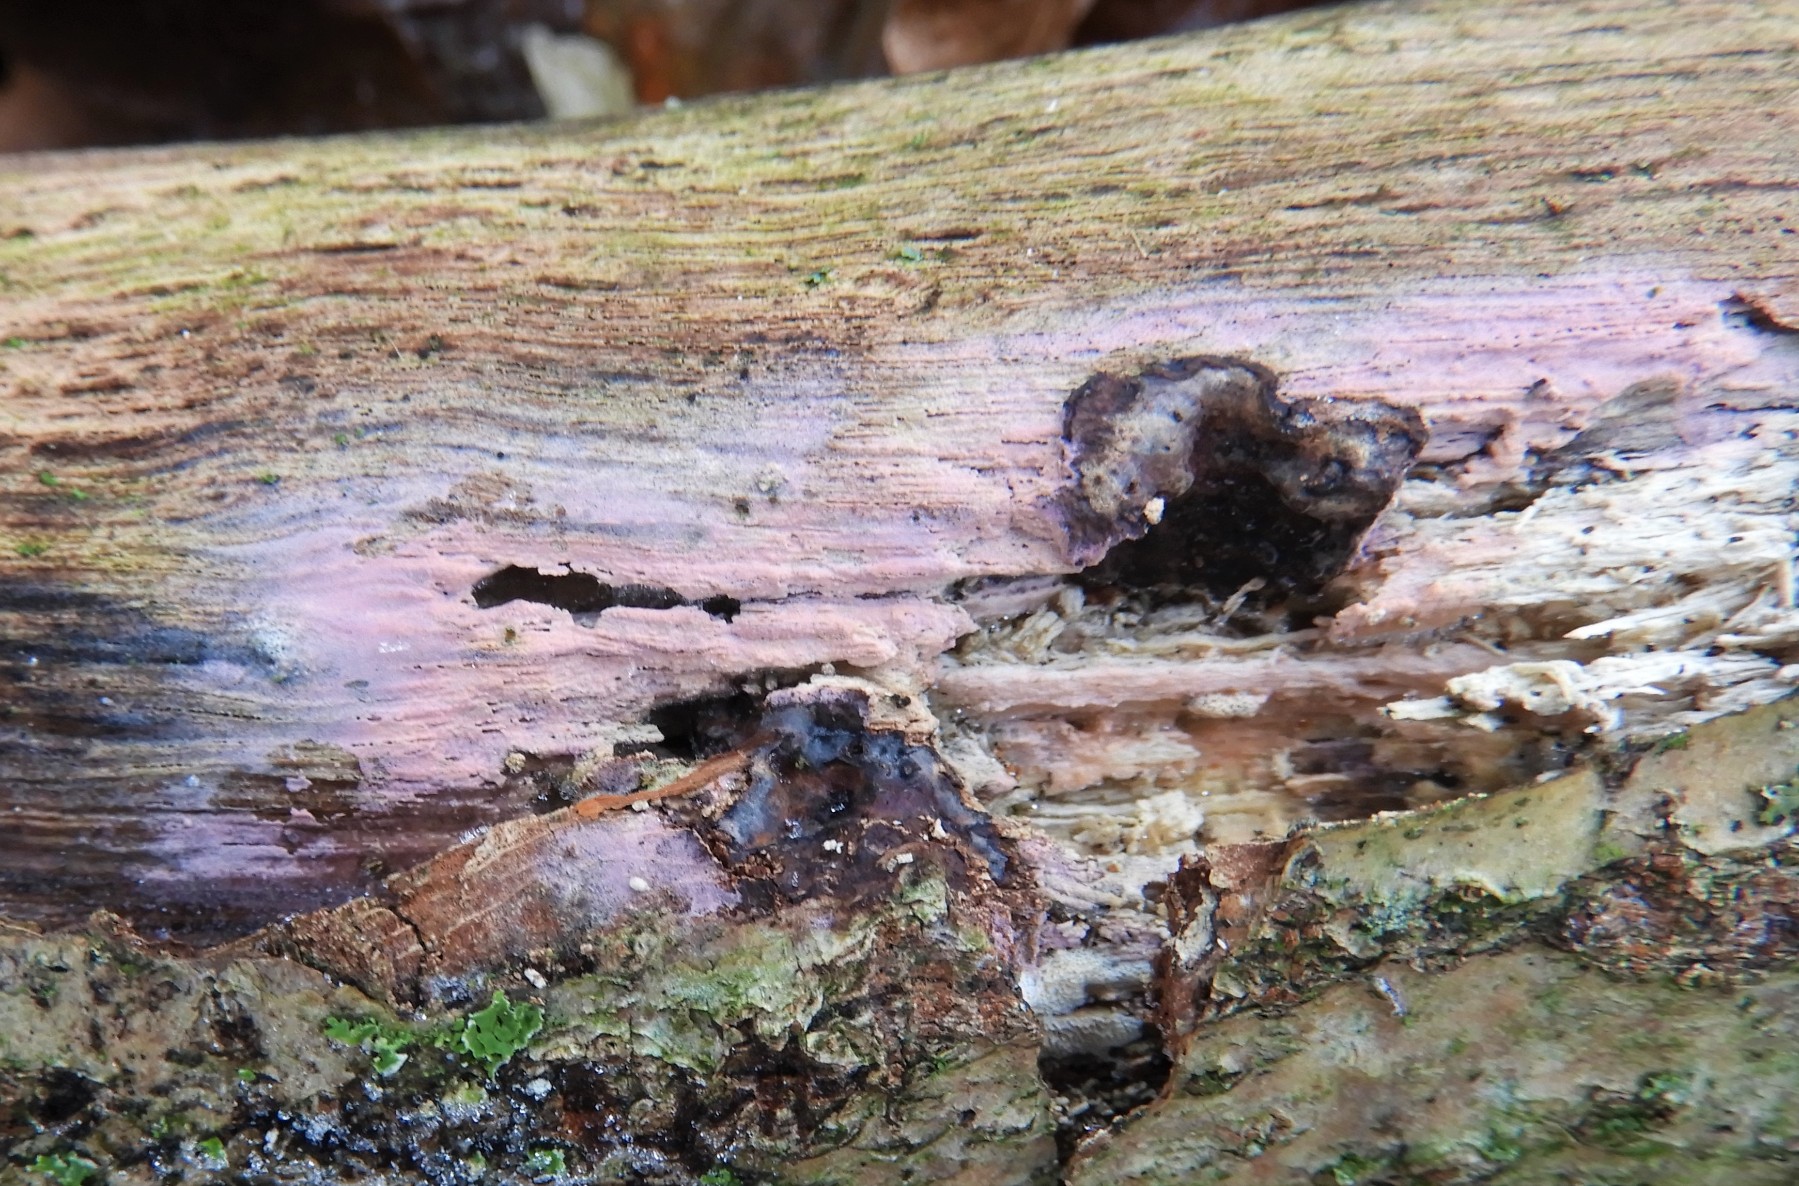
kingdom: Fungi
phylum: Basidiomycota
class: Agaricomycetes
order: Cantharellales
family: Tulasnellaceae
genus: Tulasnella
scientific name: Tulasnella violea
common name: violet ballonhinde
